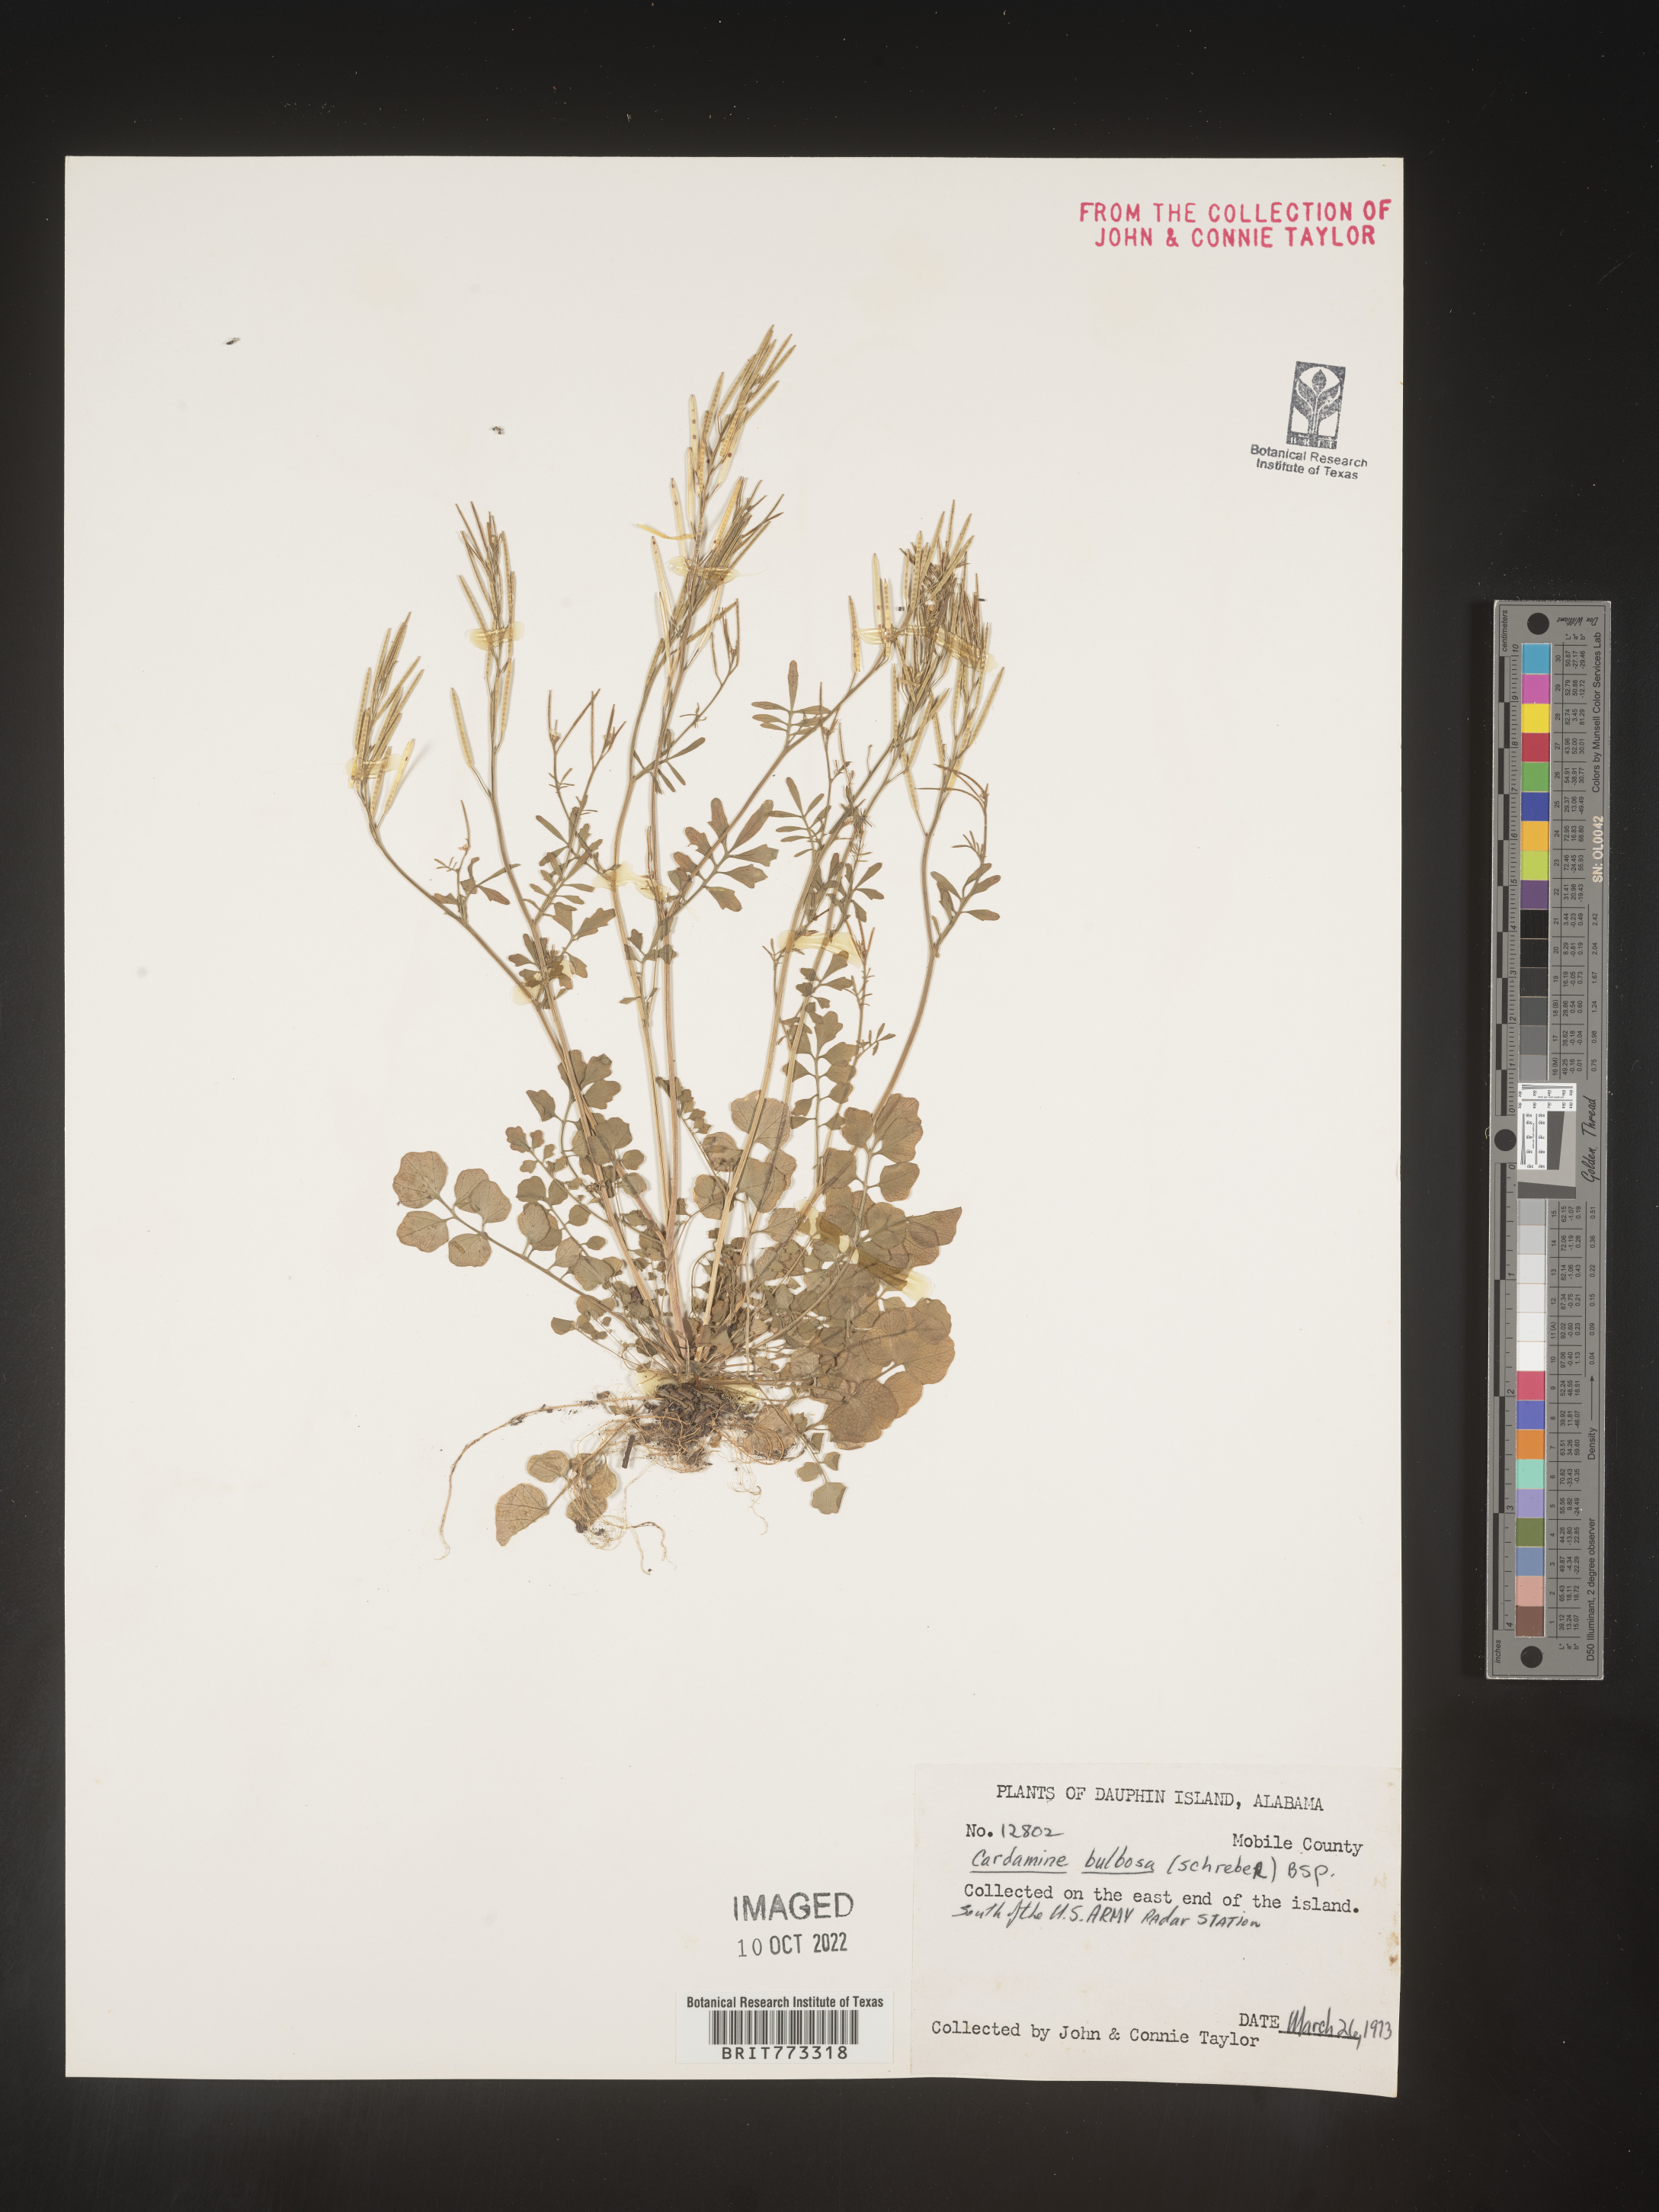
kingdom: Plantae
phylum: Tracheophyta
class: Magnoliopsida
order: Brassicales
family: Brassicaceae
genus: Cardamine
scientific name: Cardamine bulbosa
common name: Spring cress
